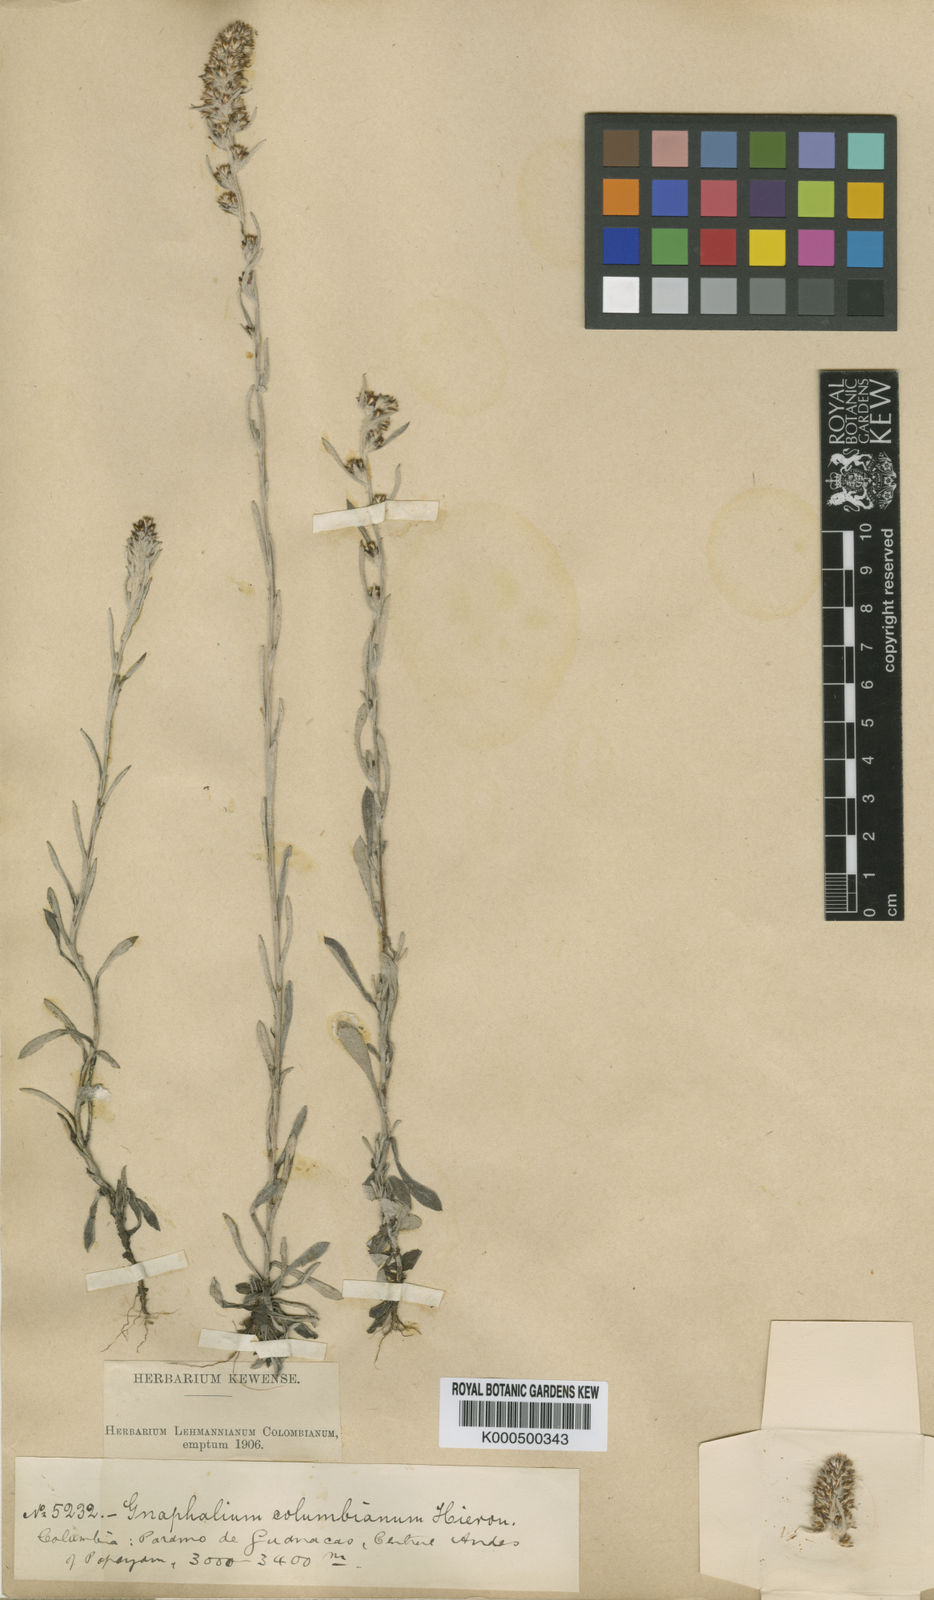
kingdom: Plantae
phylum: Tracheophyta
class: Magnoliopsida
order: Asterales
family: Asteraceae
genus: Gnaphalium
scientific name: Gnaphalium
